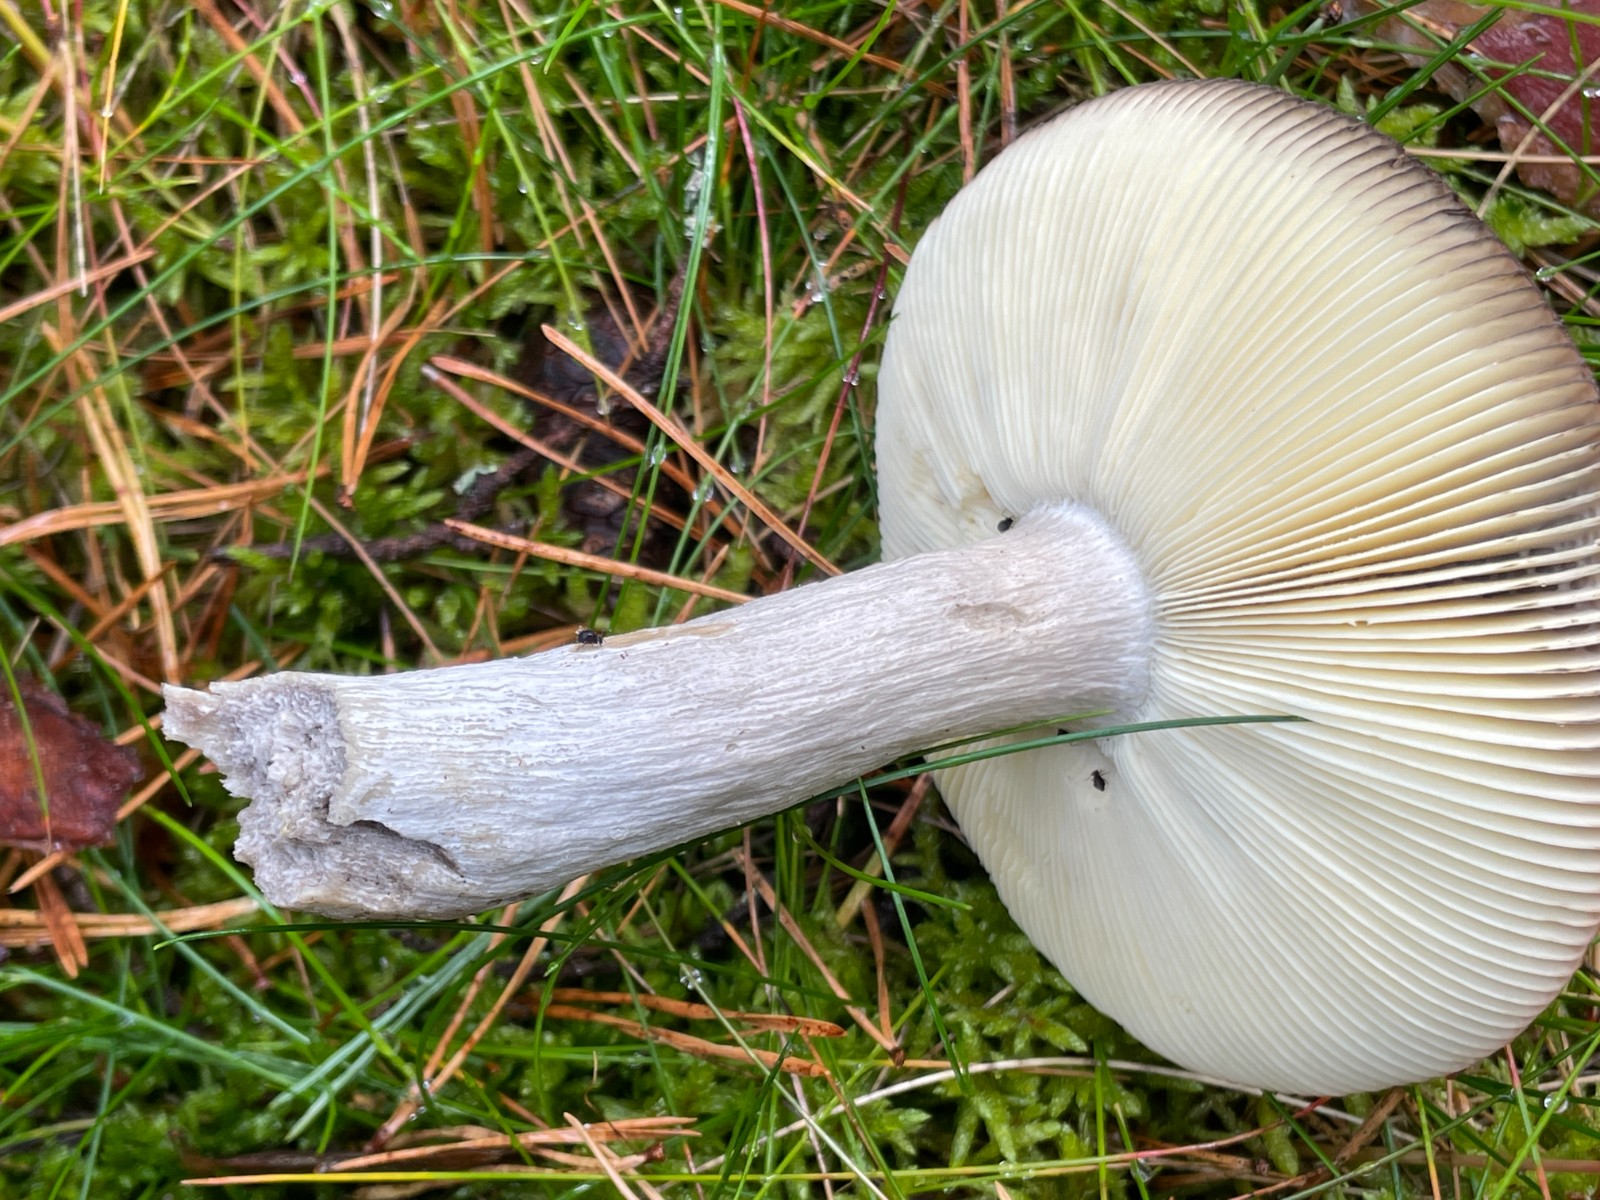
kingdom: Fungi
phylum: Basidiomycota
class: Agaricomycetes
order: Russulales
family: Russulaceae
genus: Russula
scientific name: Russula decolorans
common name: afblegende skørhat
